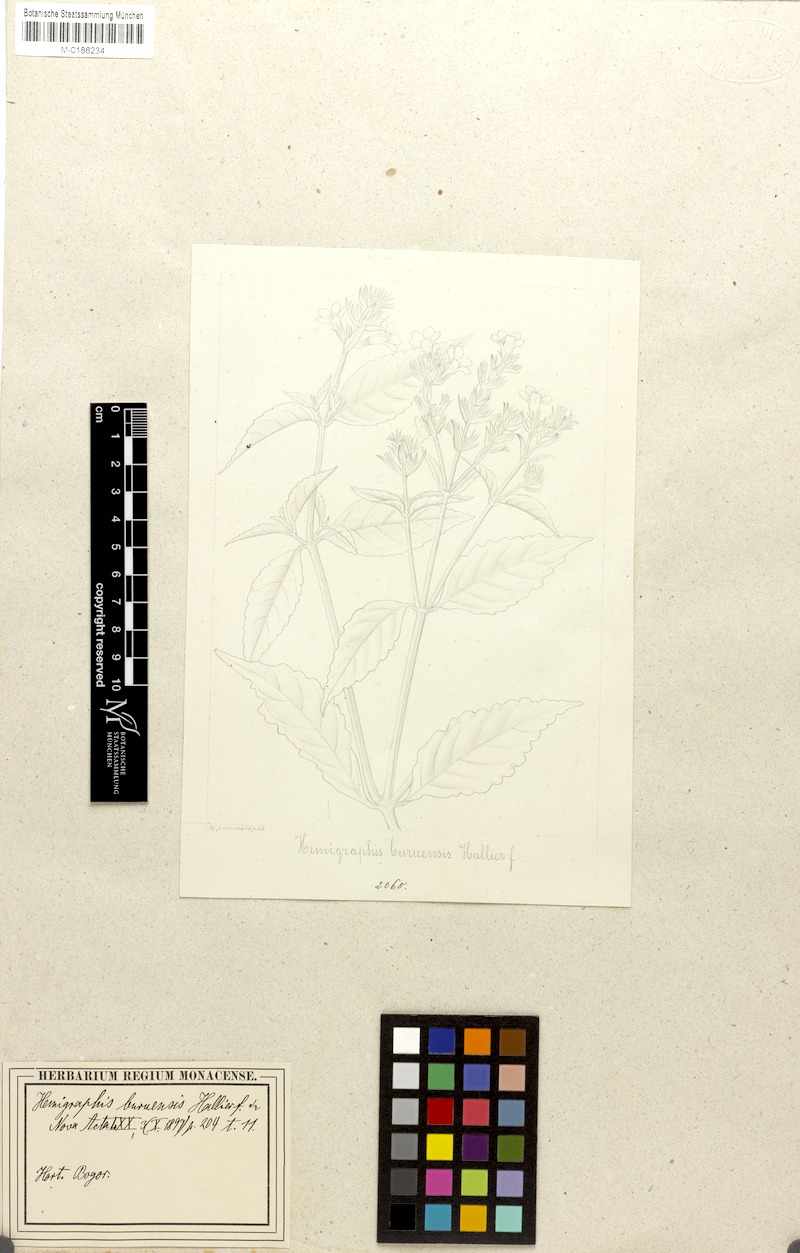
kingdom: Plantae
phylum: Tracheophyta
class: Magnoliopsida
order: Lamiales
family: Acanthaceae
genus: Strobilanthes
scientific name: Strobilanthes linearifolia
